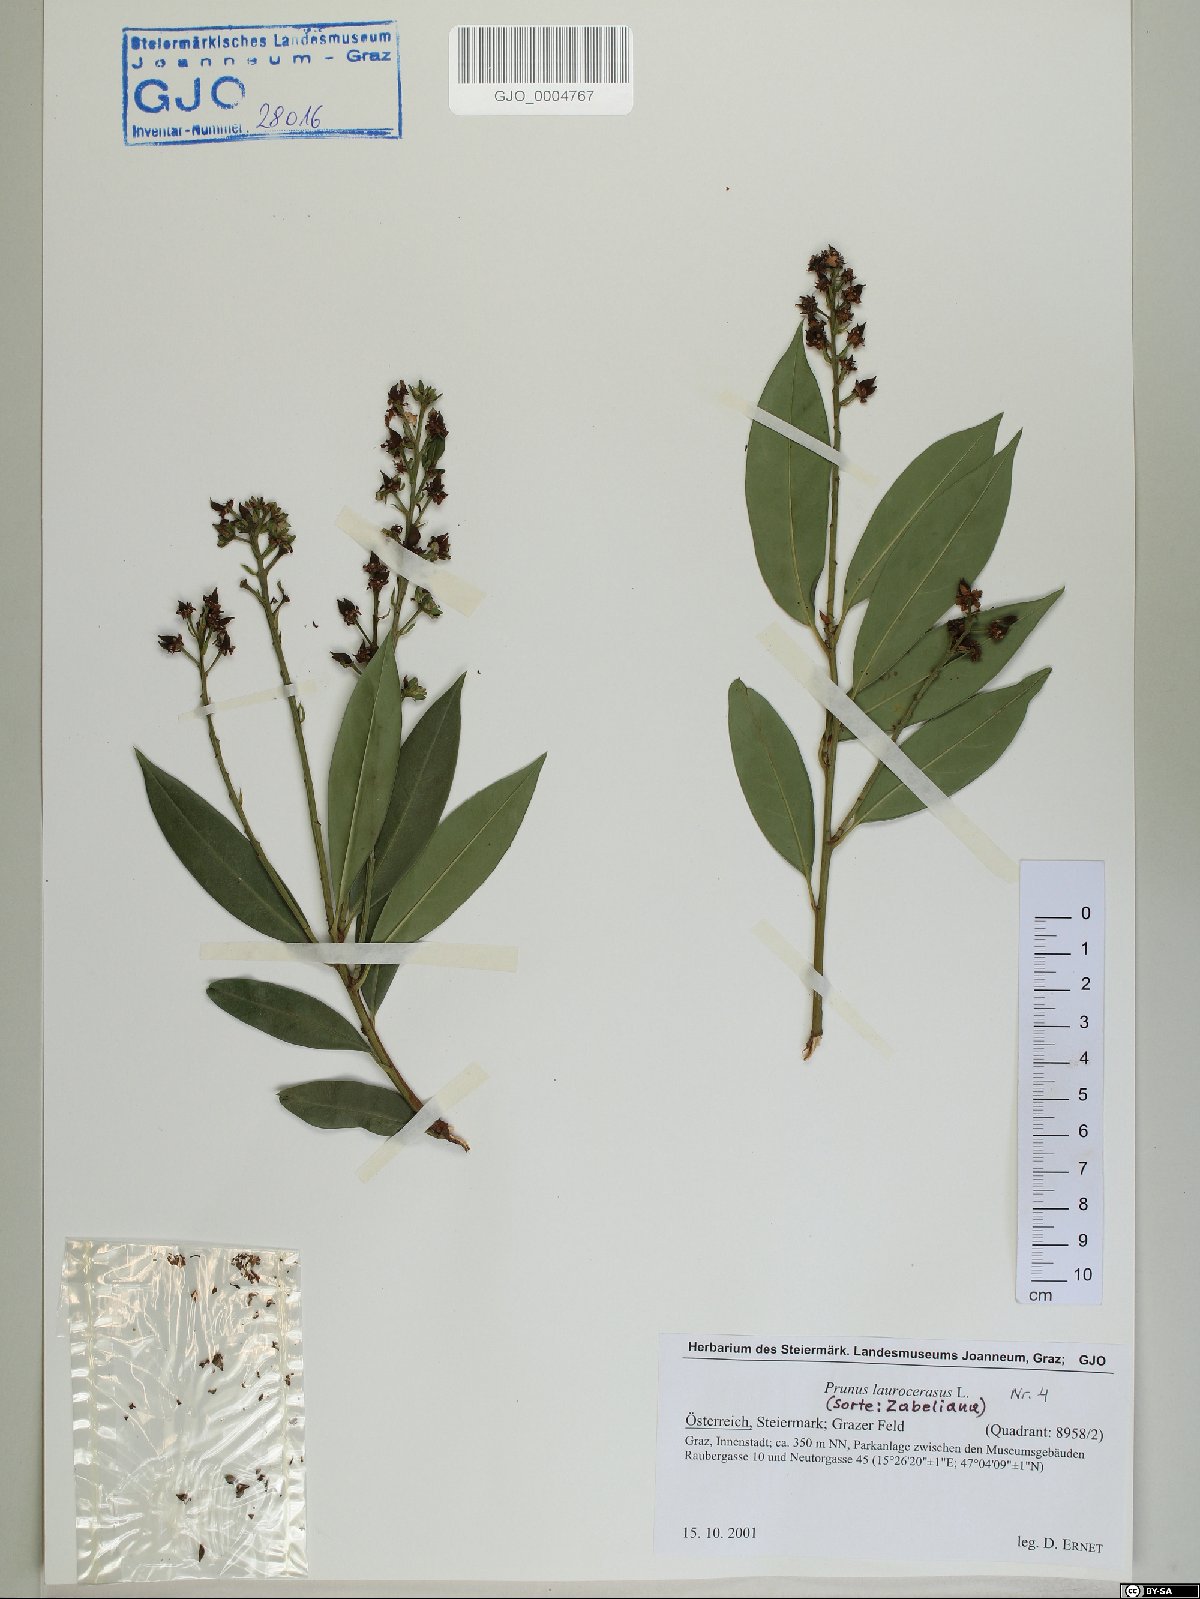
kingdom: Plantae
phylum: Tracheophyta
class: Magnoliopsida
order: Rosales
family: Rosaceae
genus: Prunus
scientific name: Prunus laurocerasus
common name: Cherry laurel
